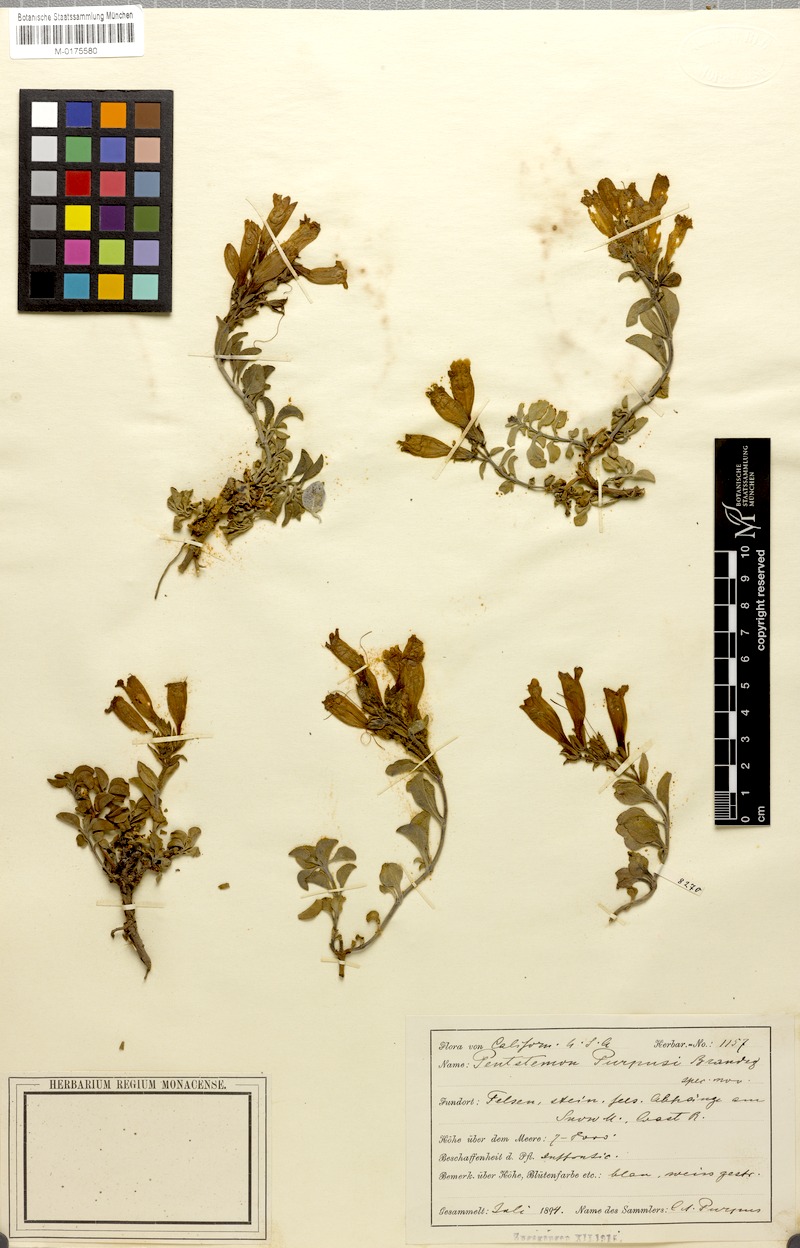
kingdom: Plantae
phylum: Tracheophyta
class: Magnoliopsida
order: Lamiales
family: Plantaginaceae
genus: Penstemon
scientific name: Penstemon purpusii
